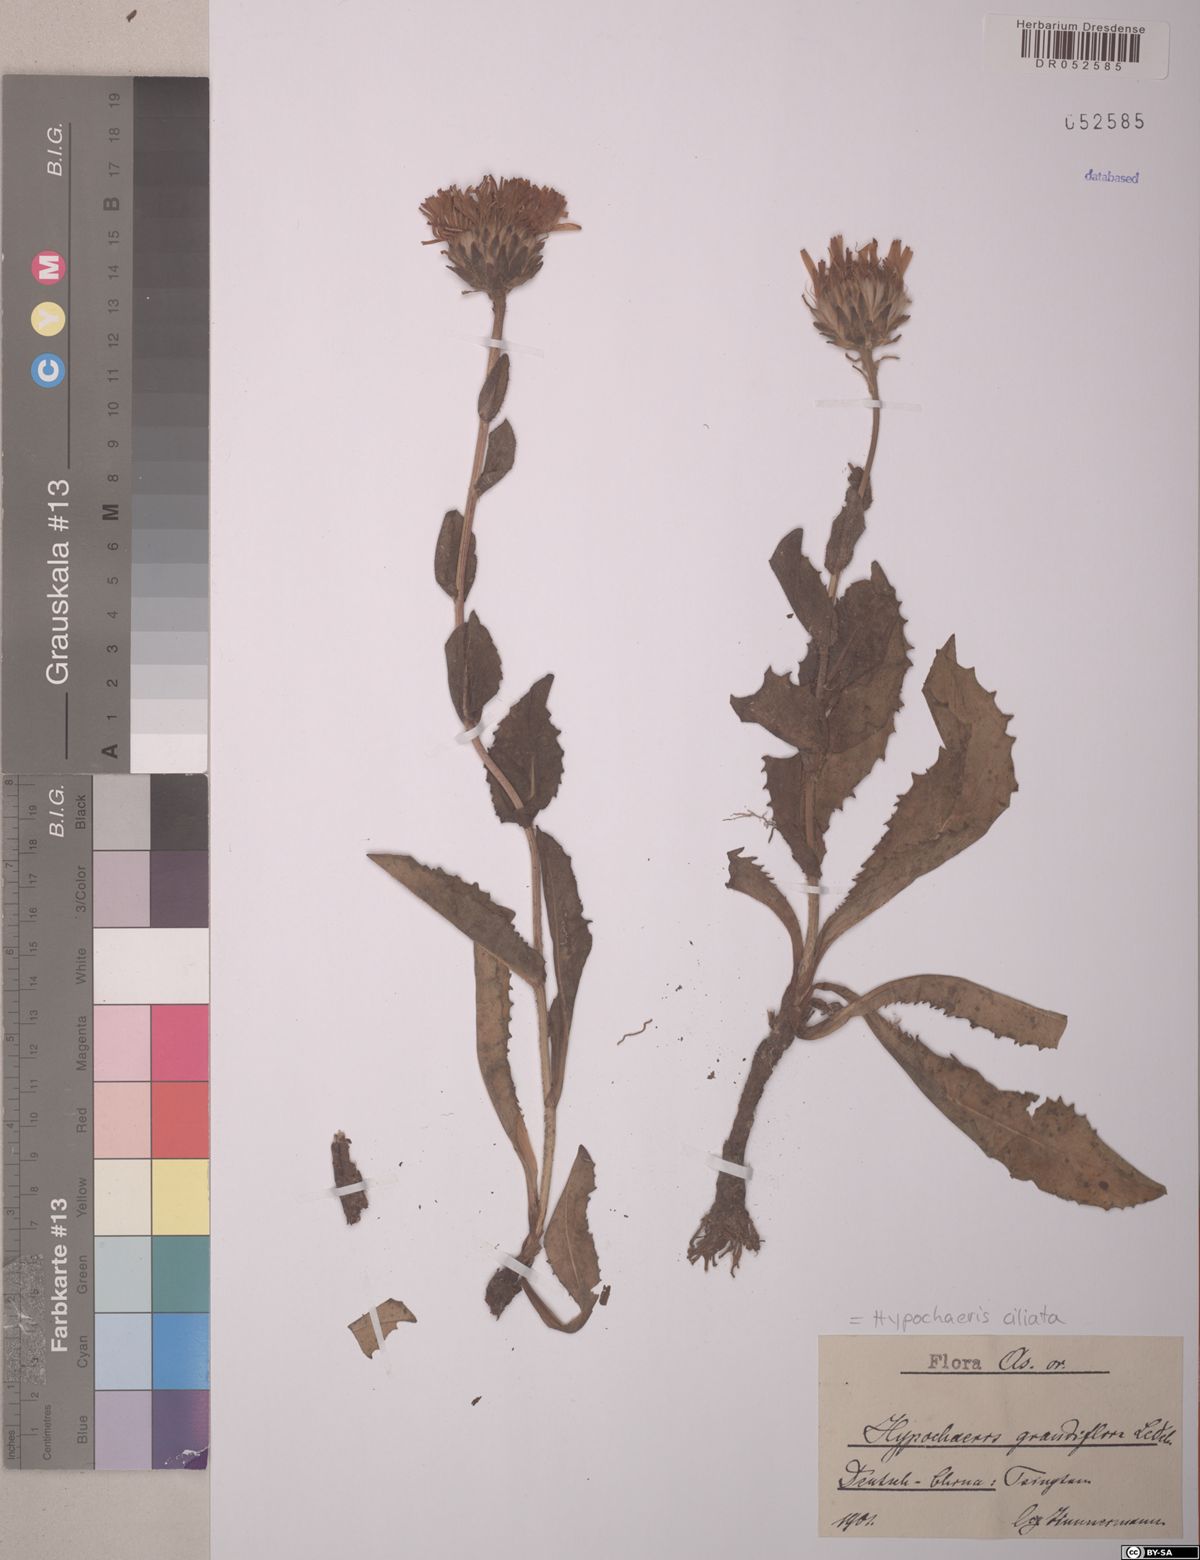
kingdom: Plantae
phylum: Tracheophyta
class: Magnoliopsida
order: Asterales
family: Asteraceae
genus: Trommsdorffia
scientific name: Trommsdorffia ciliata
